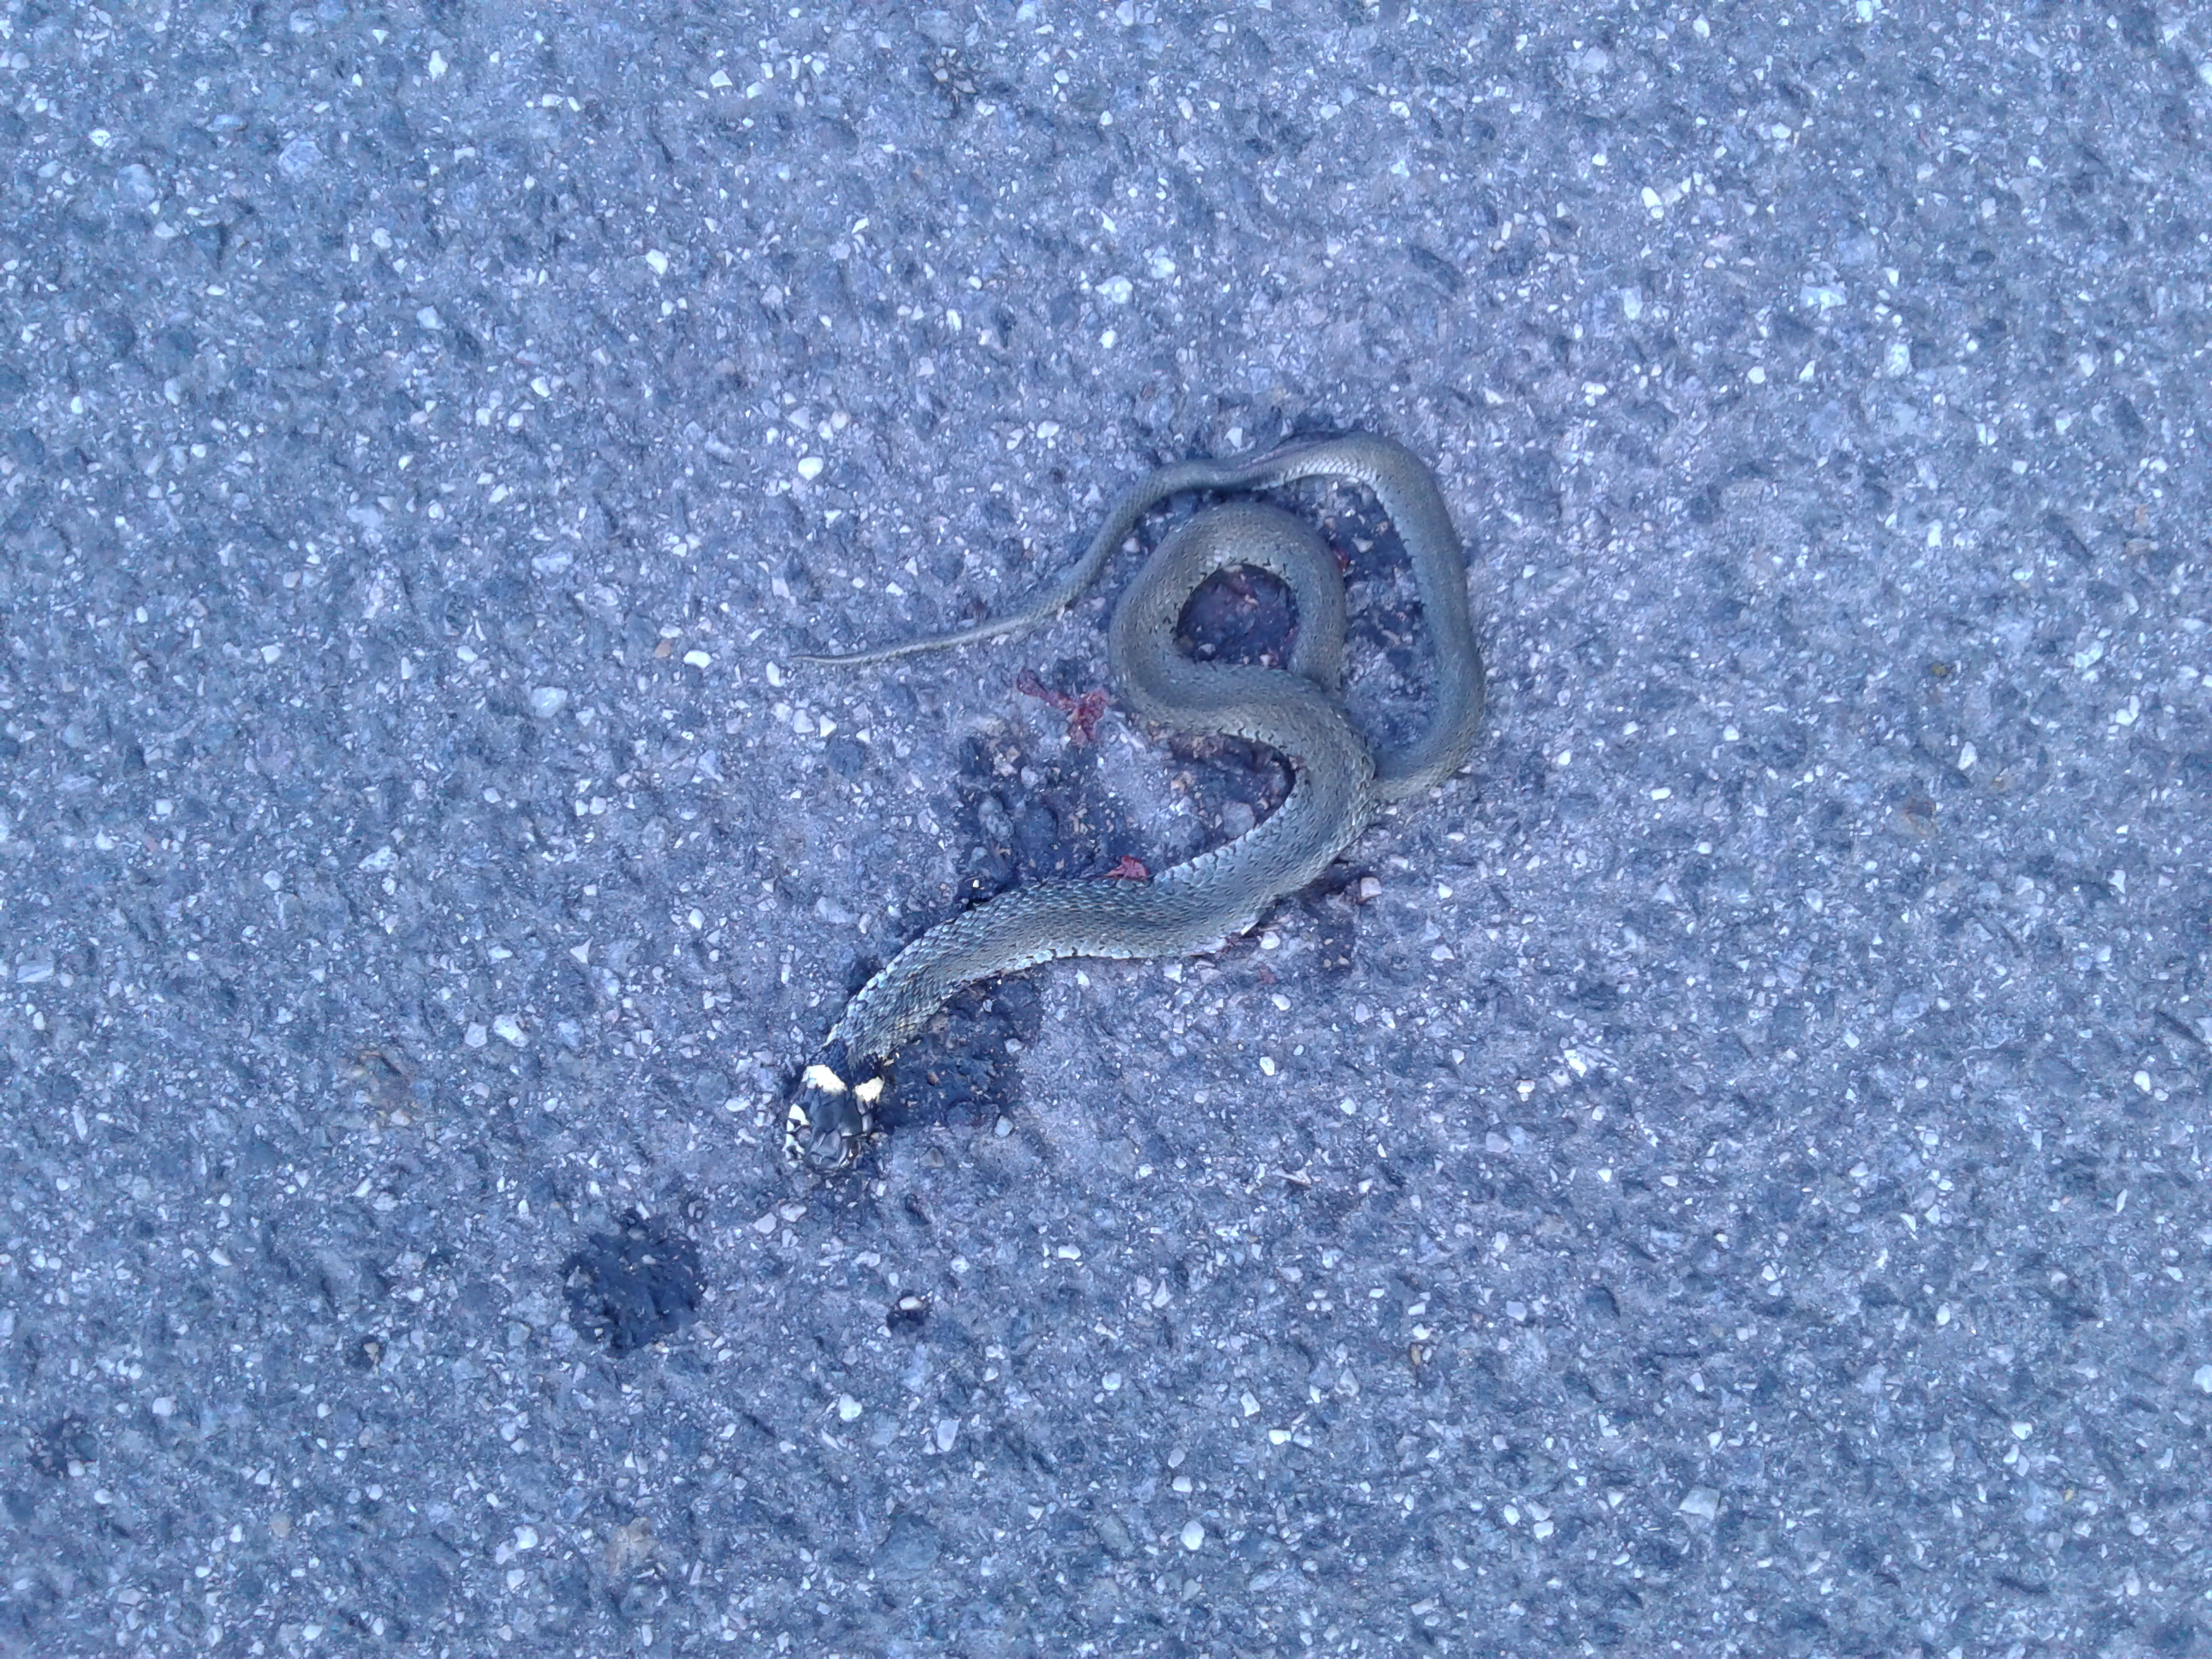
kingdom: Animalia
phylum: Chordata
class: Squamata
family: Colubridae
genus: Natrix
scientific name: Natrix natrix
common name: Grass snake
